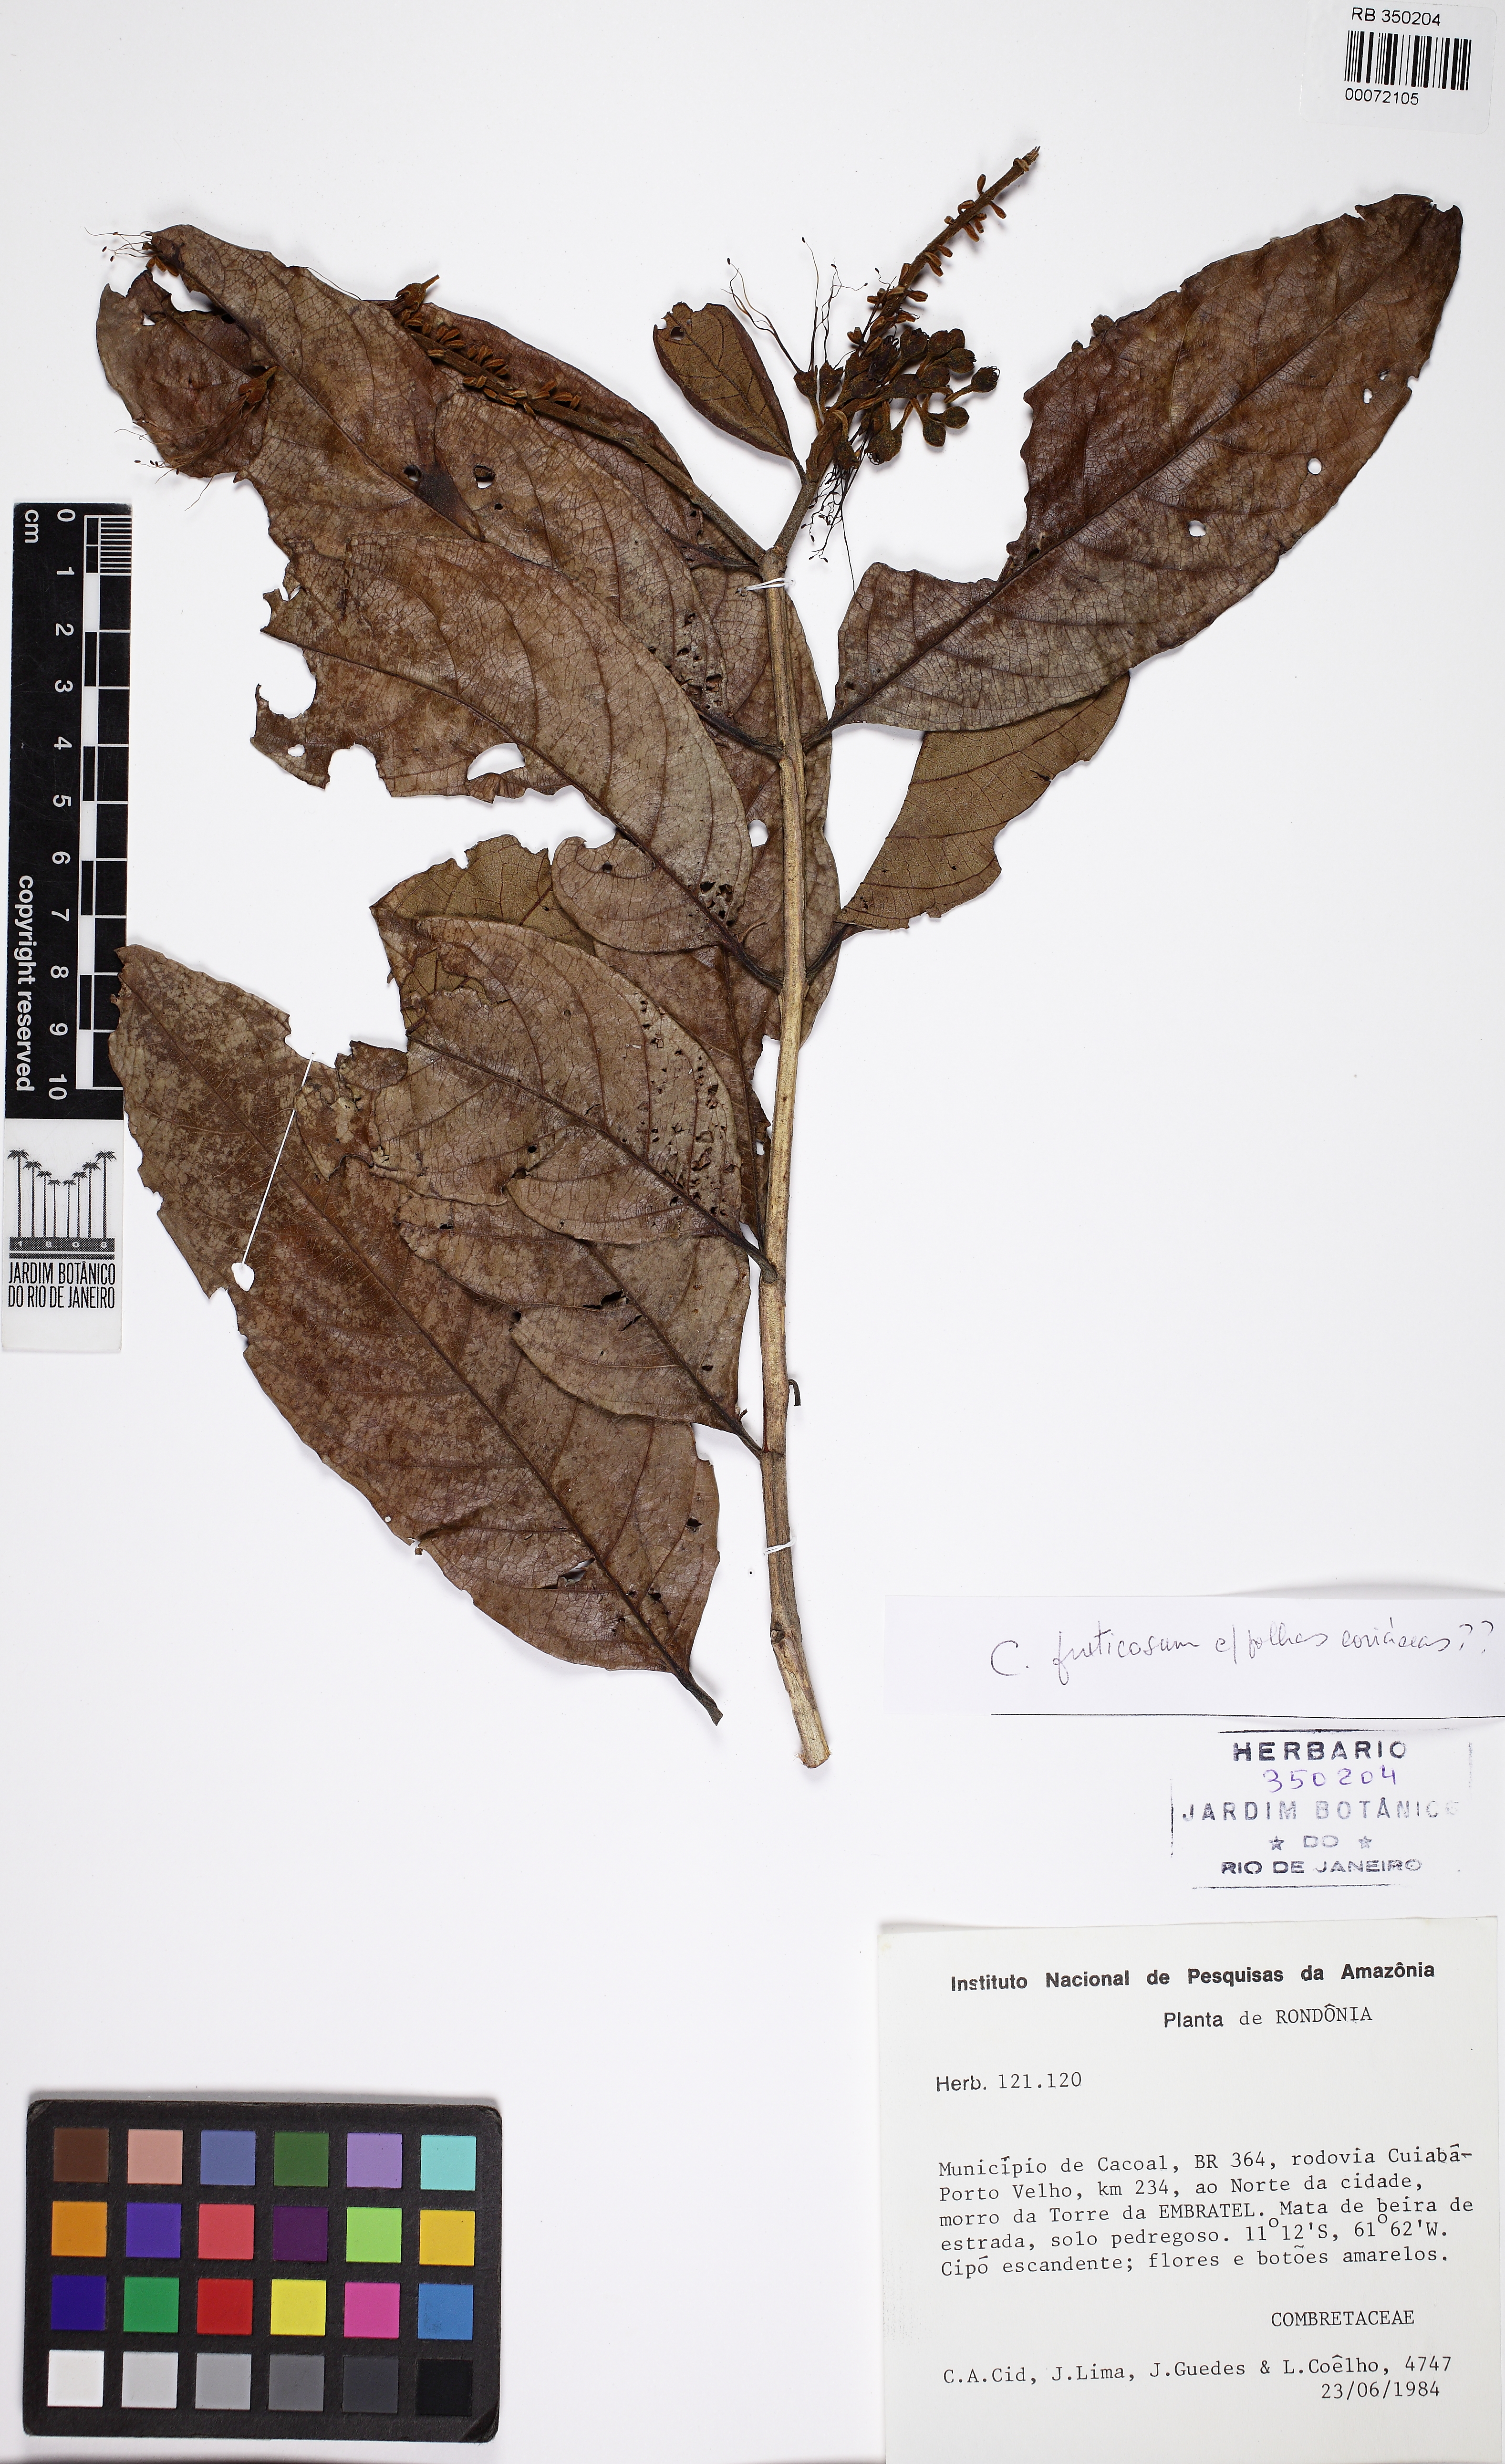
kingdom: Plantae
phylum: Tracheophyta
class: Magnoliopsida
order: Myrtales
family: Combretaceae
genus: Combretum
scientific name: Combretum fruticosum
